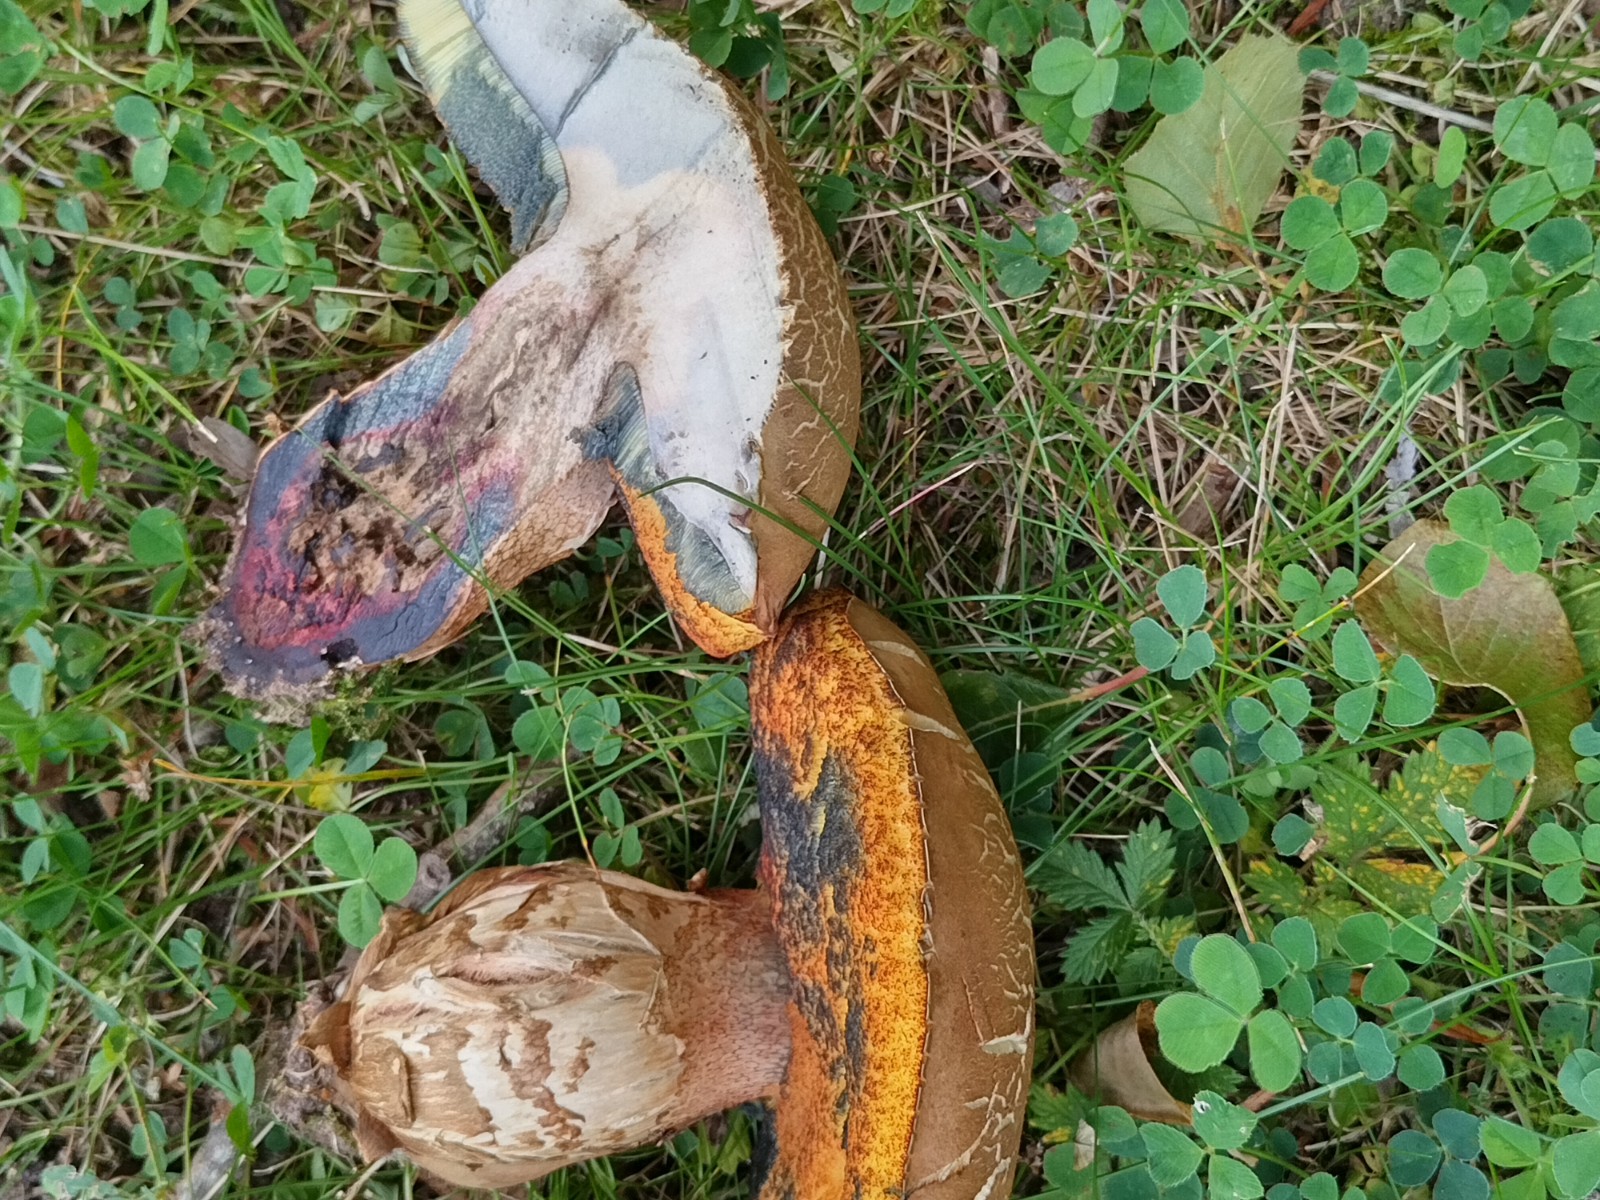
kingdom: Fungi
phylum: Basidiomycota
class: Agaricomycetes
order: Boletales
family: Boletaceae
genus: Suillellus
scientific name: Suillellus luridus
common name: netstokket indigorørhat
